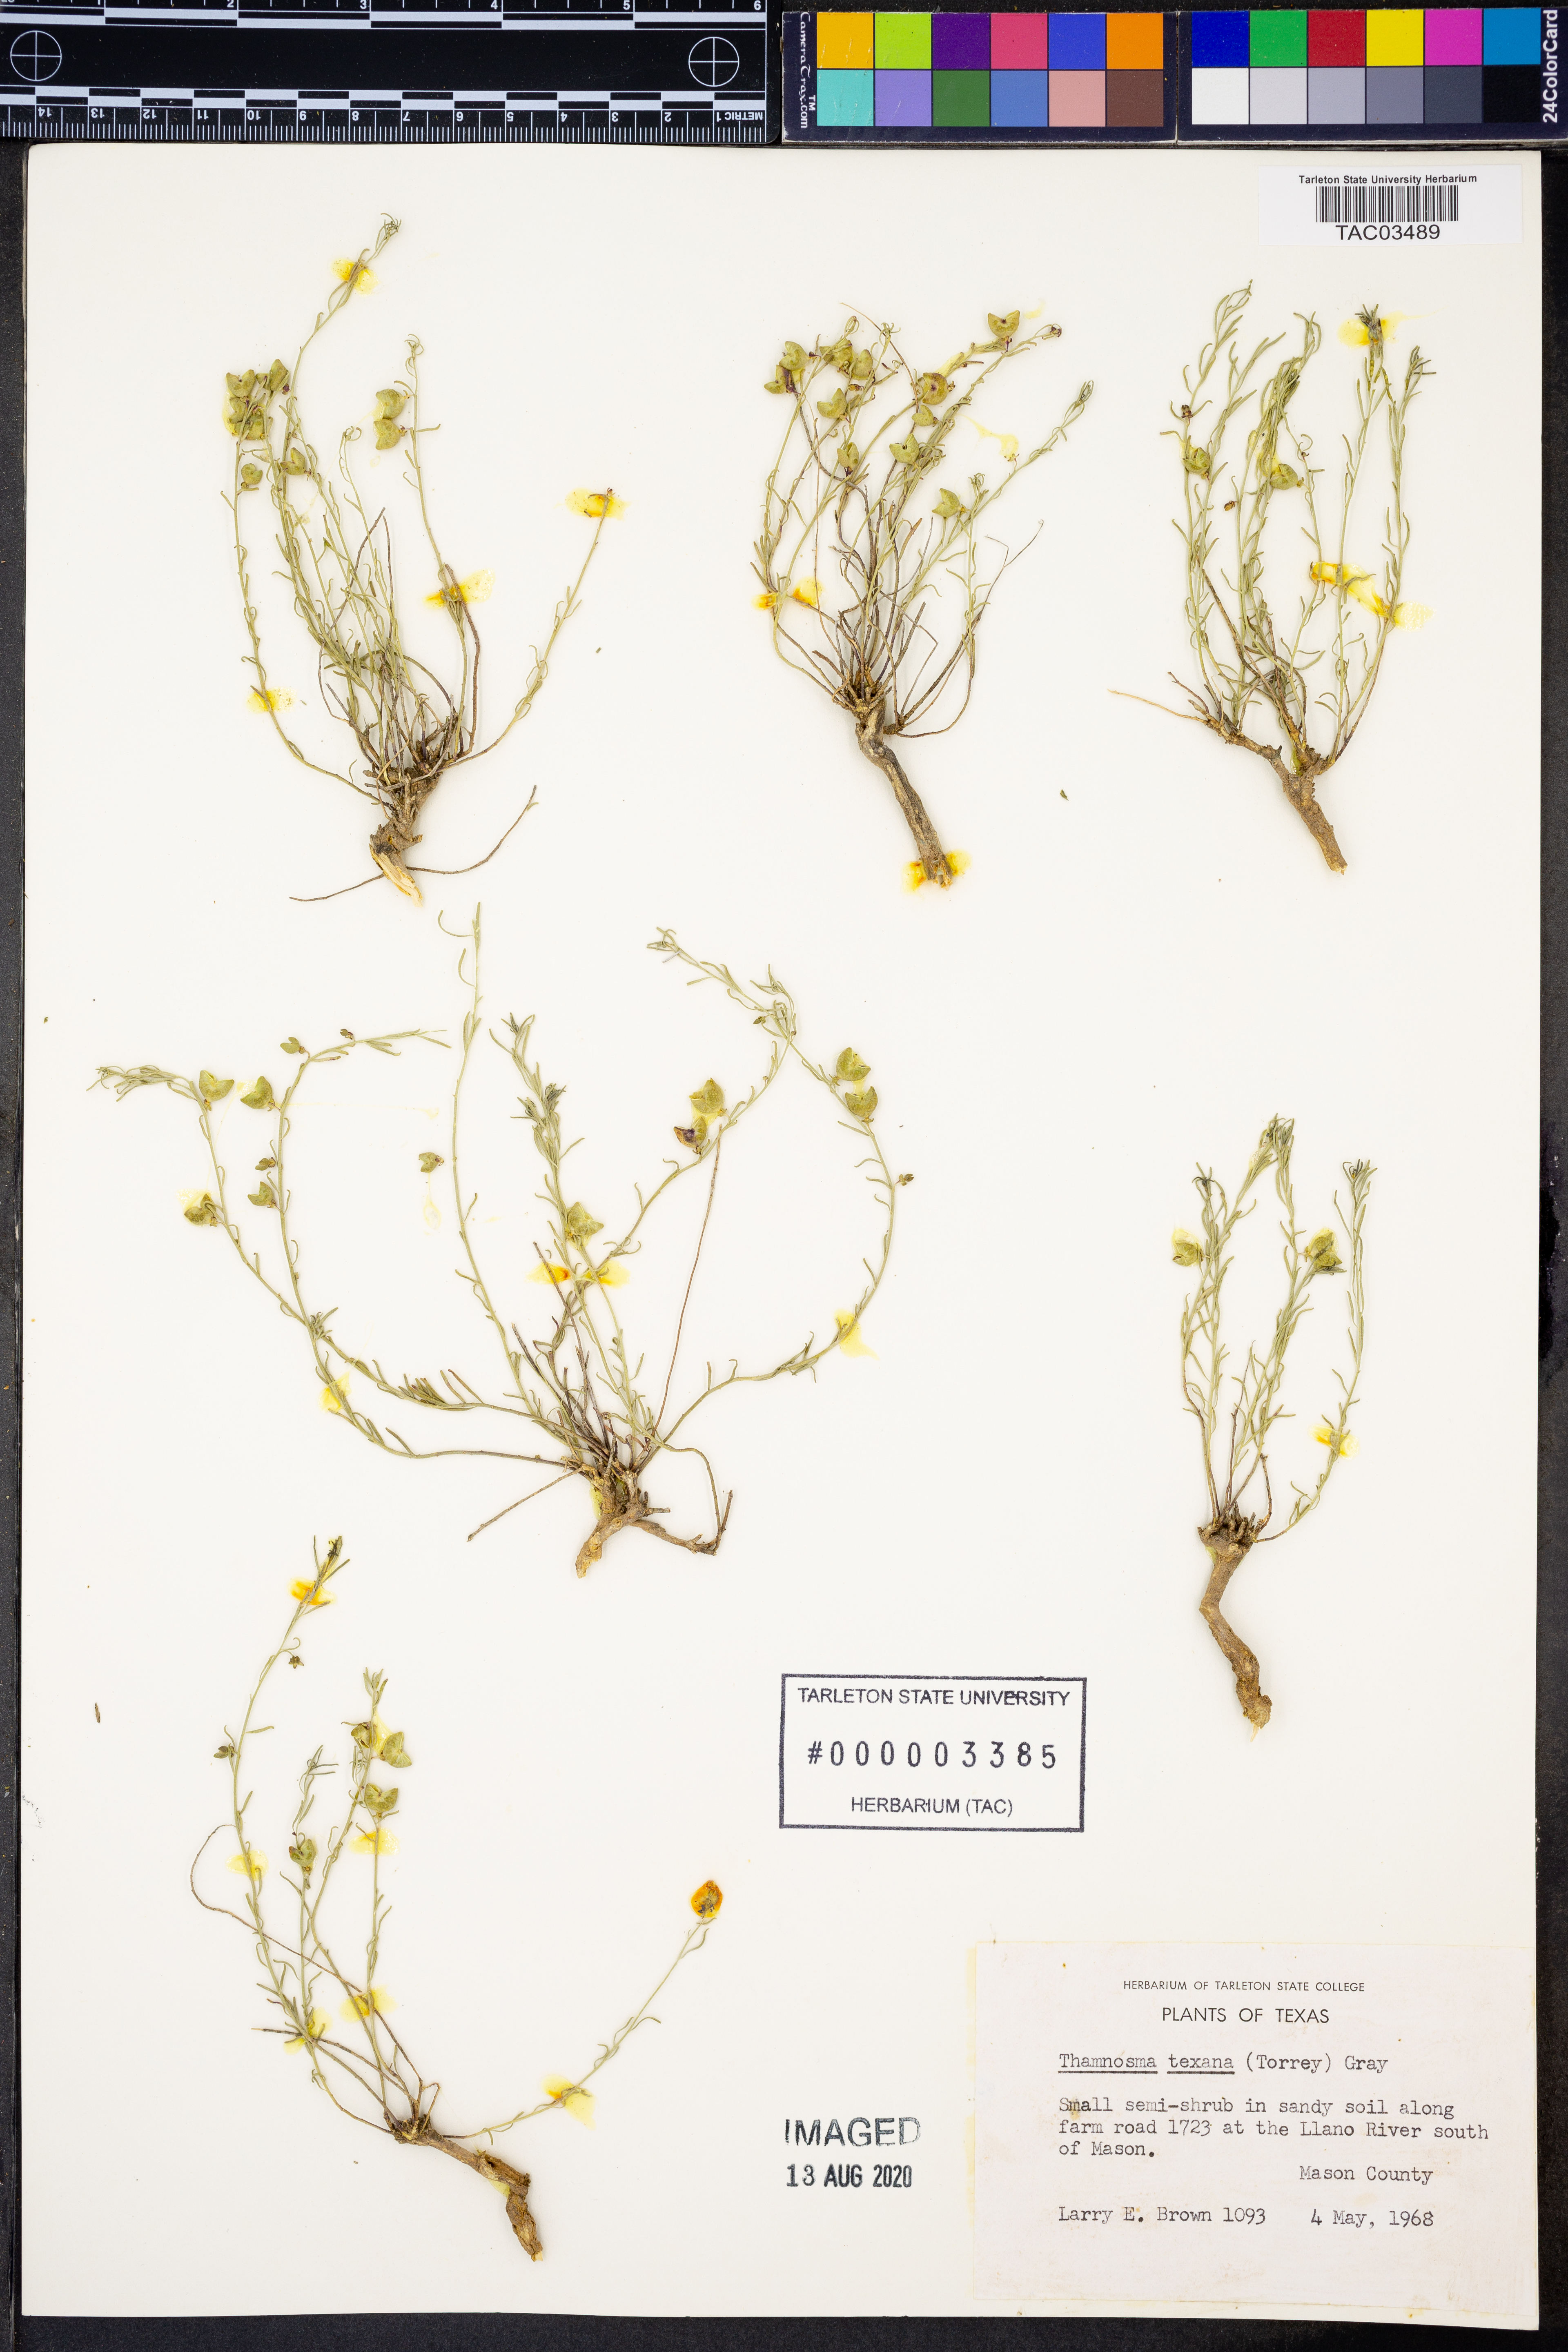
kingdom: Plantae
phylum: Tracheophyta
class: Magnoliopsida
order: Sapindales
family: Rutaceae
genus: Thamnosma
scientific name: Thamnosma texana
